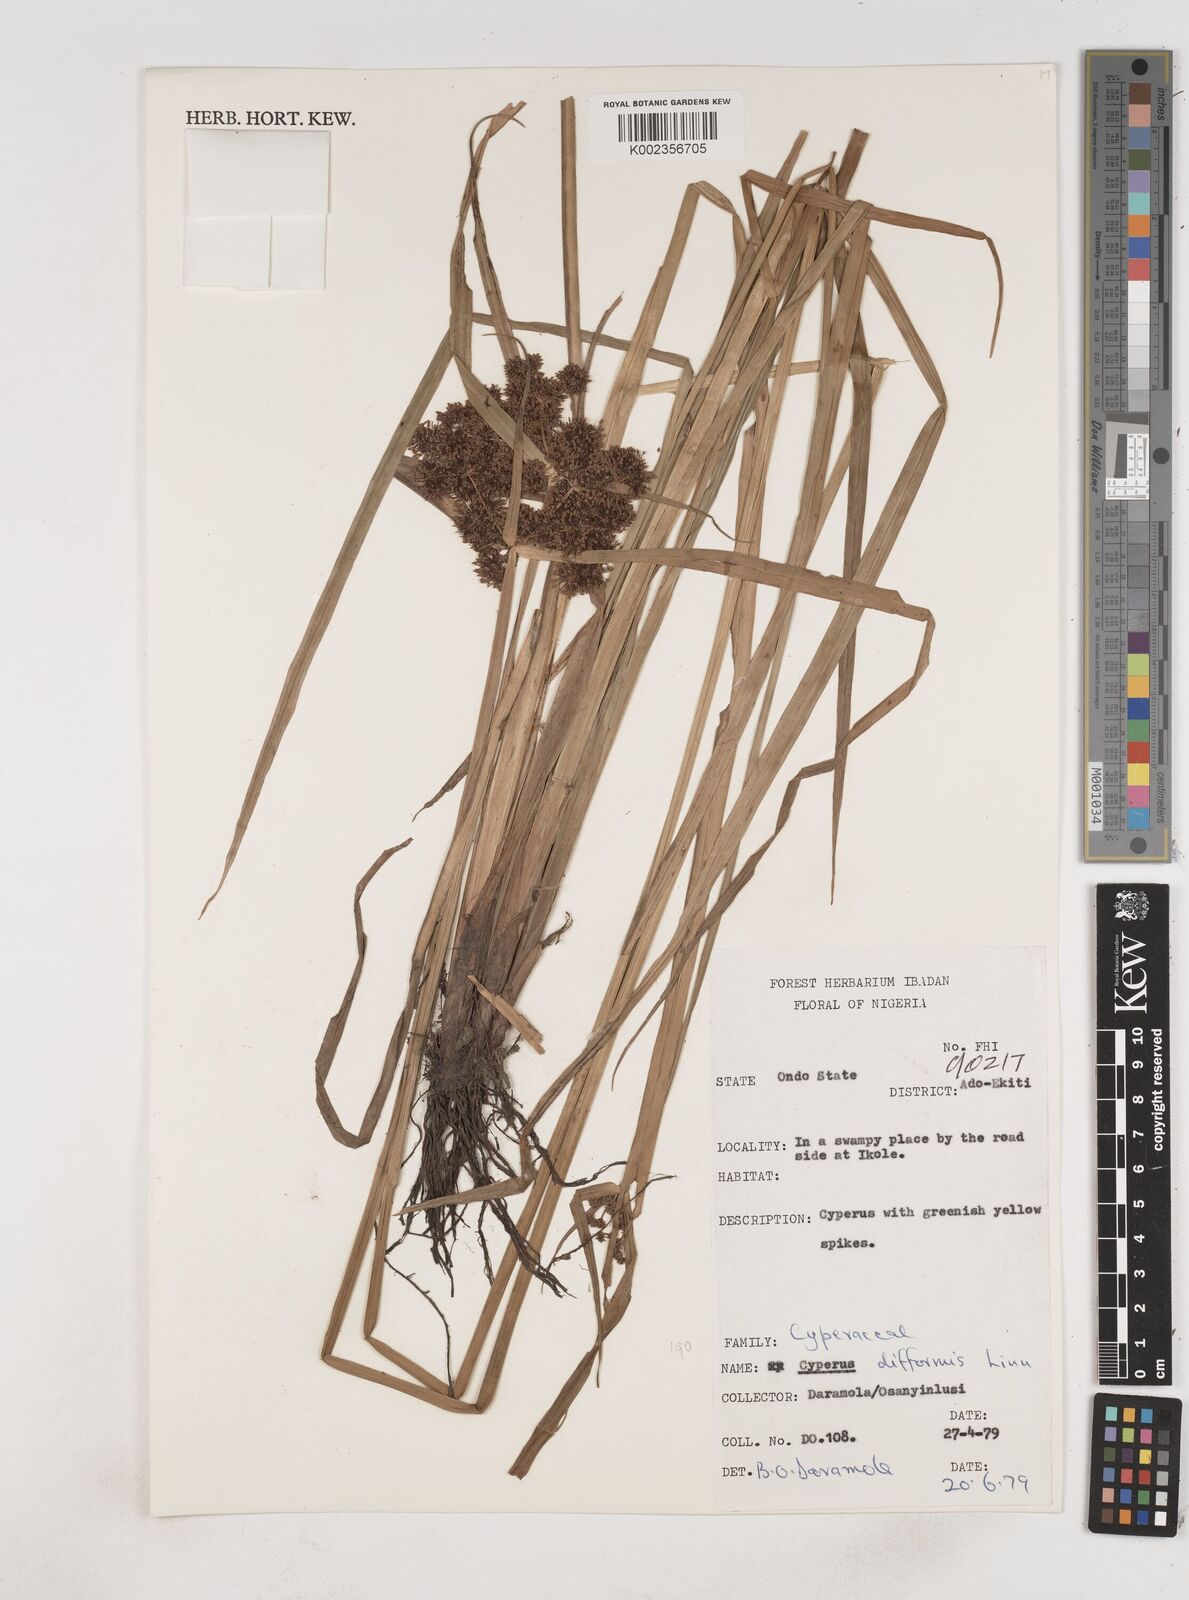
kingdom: Plantae
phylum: Tracheophyta
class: Liliopsida
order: Poales
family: Cyperaceae
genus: Cyperus
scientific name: Cyperus difformis
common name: Variable flatsedge
